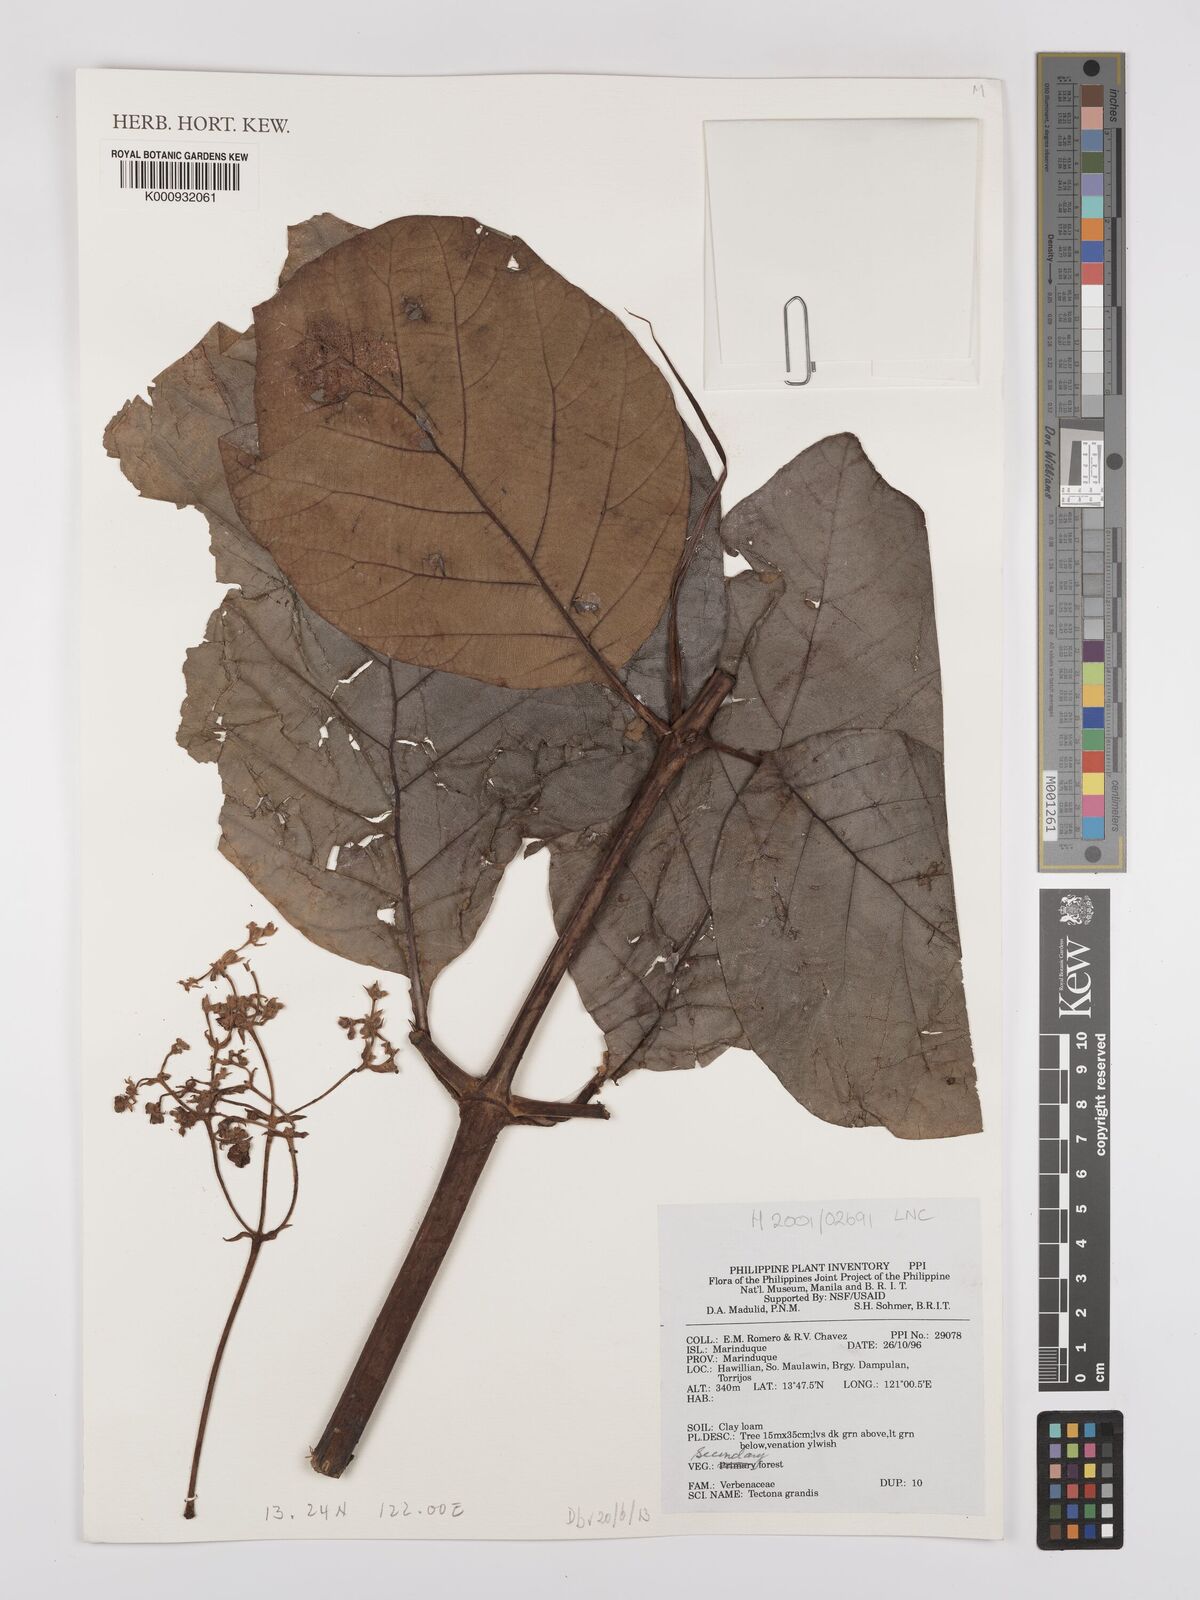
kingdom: Plantae
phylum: Tracheophyta
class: Magnoliopsida
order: Lamiales
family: Lamiaceae
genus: Tectona
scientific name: Tectona grandis
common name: Teak
